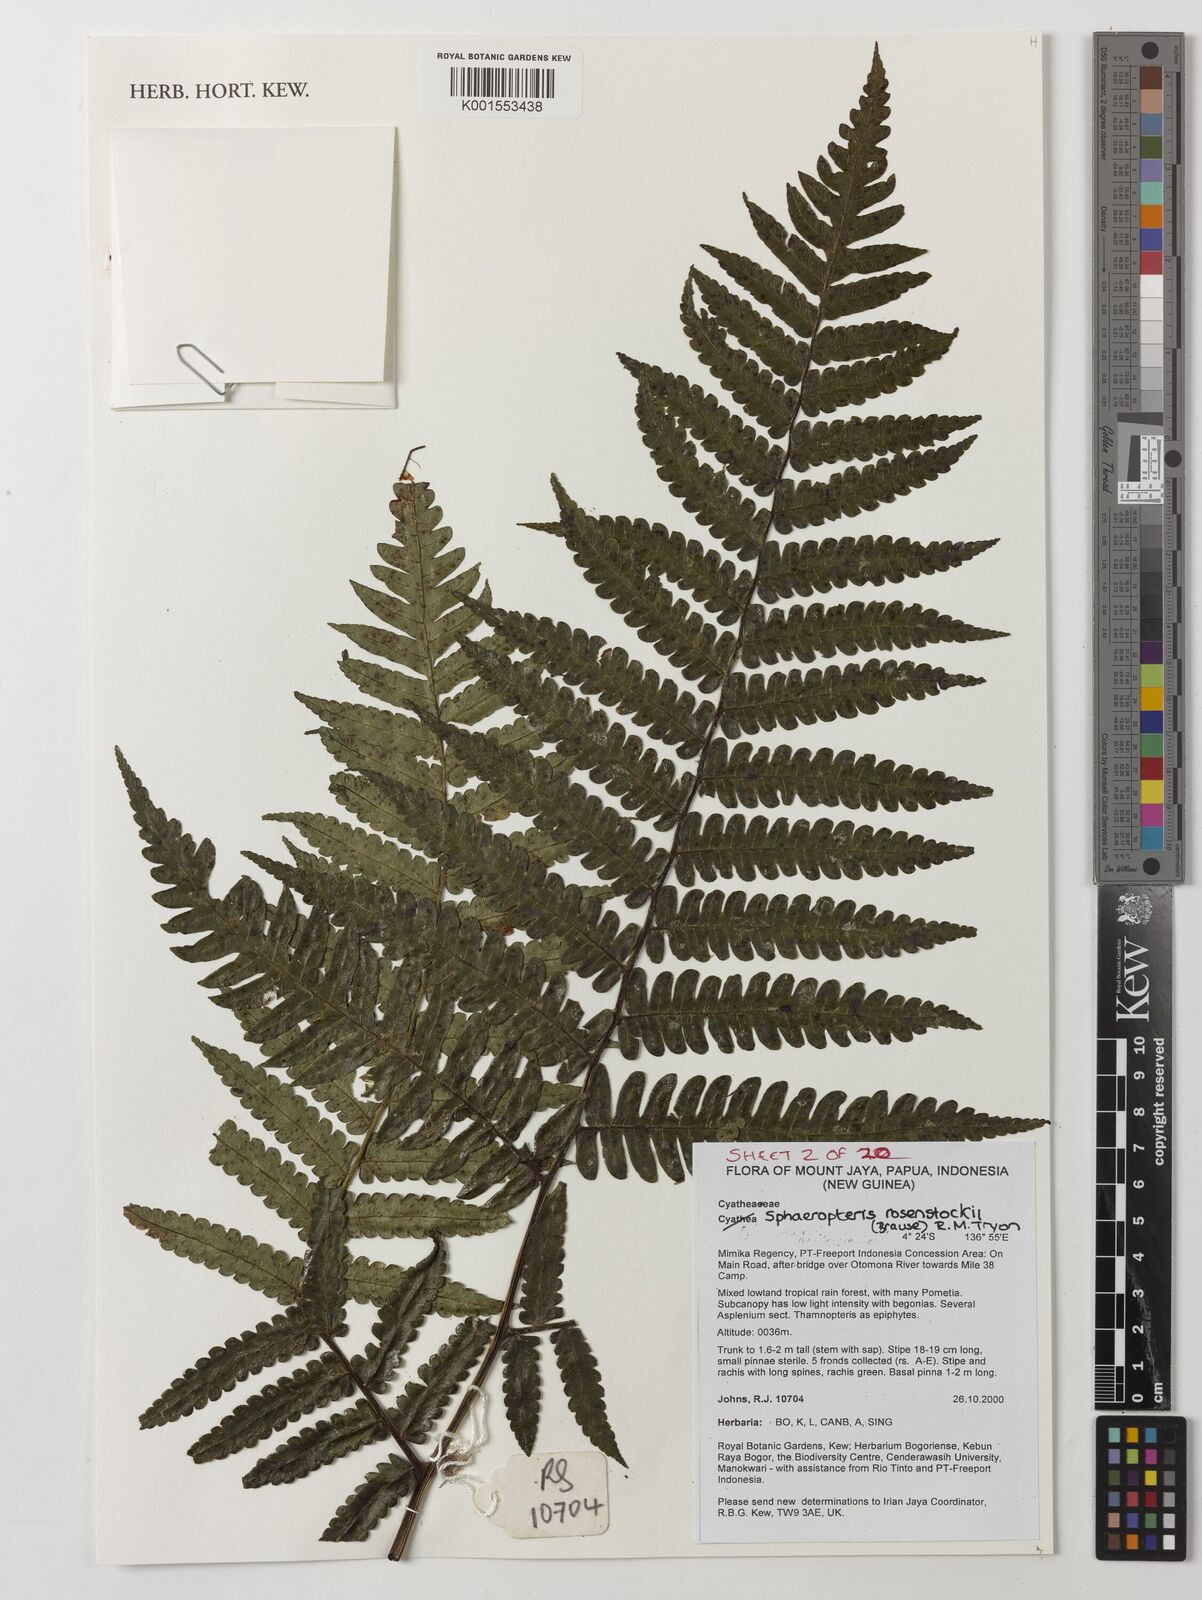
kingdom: Plantae
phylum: Tracheophyta
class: Polypodiopsida
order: Cyatheales
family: Cyatheaceae
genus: Sphaeropteris
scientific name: Sphaeropteris rosenstockii
